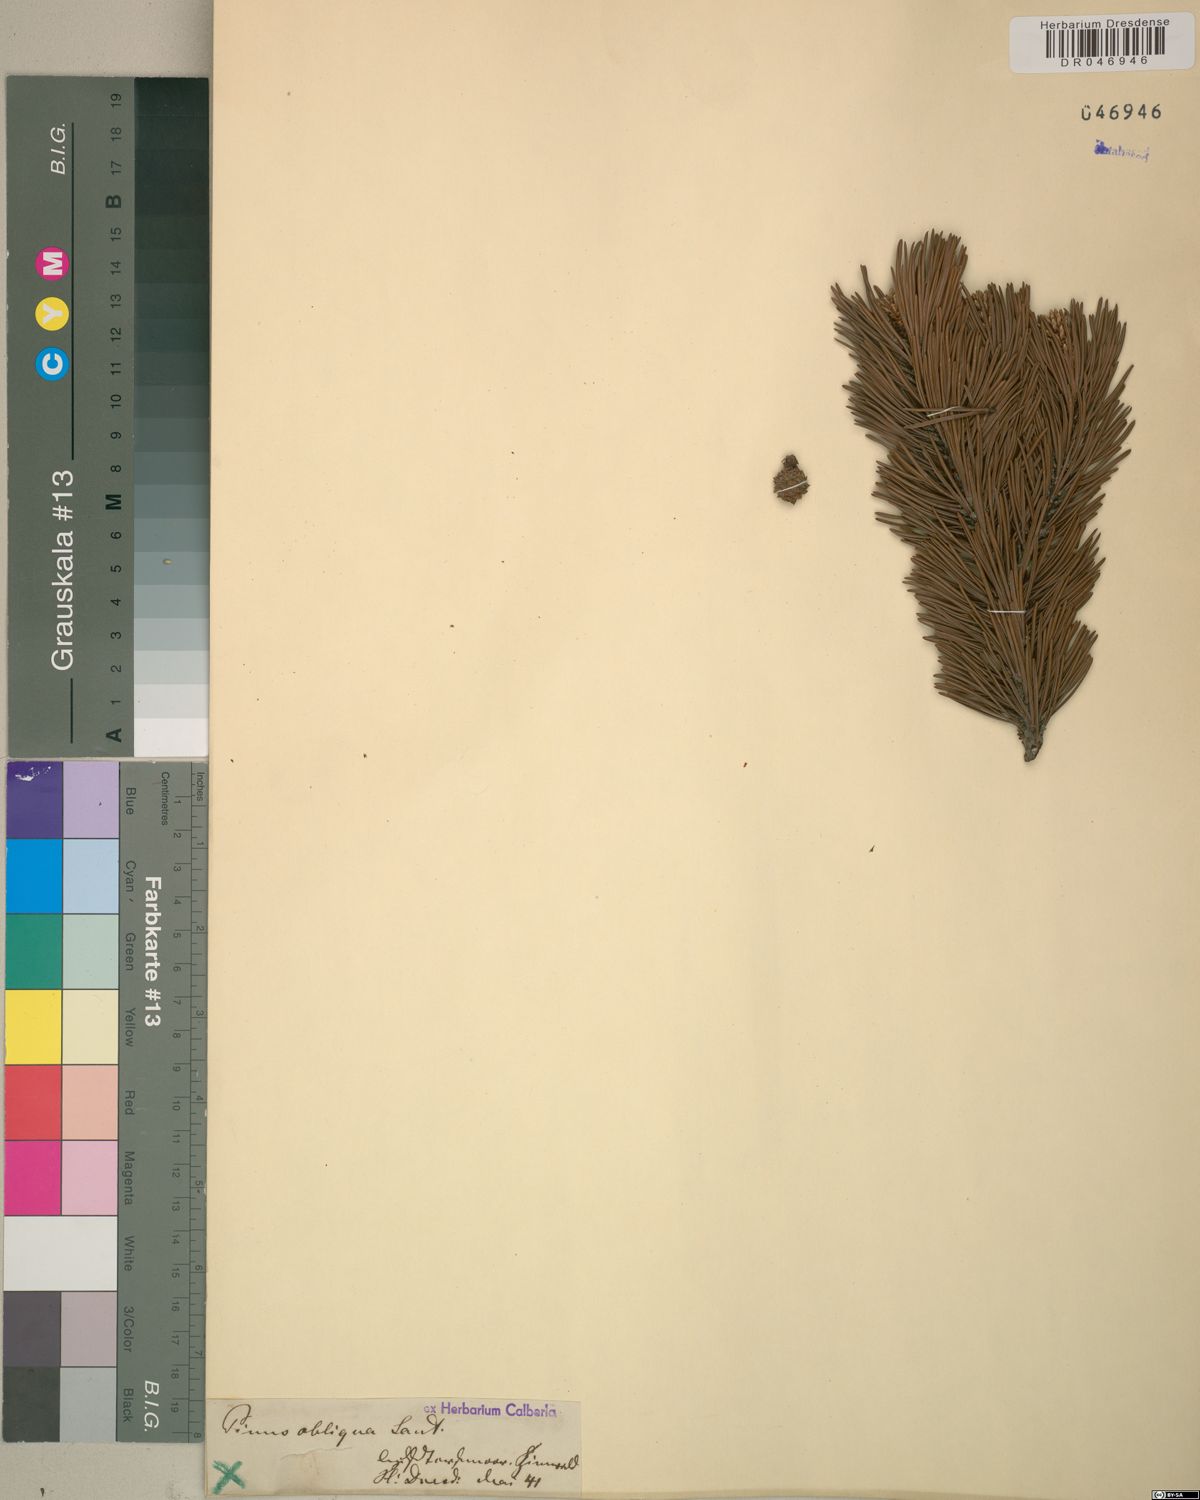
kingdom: Plantae
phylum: Tracheophyta
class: Pinopsida
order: Pinales
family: Pinaceae
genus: Pinus
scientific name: Pinus mugo
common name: Mugo pine
